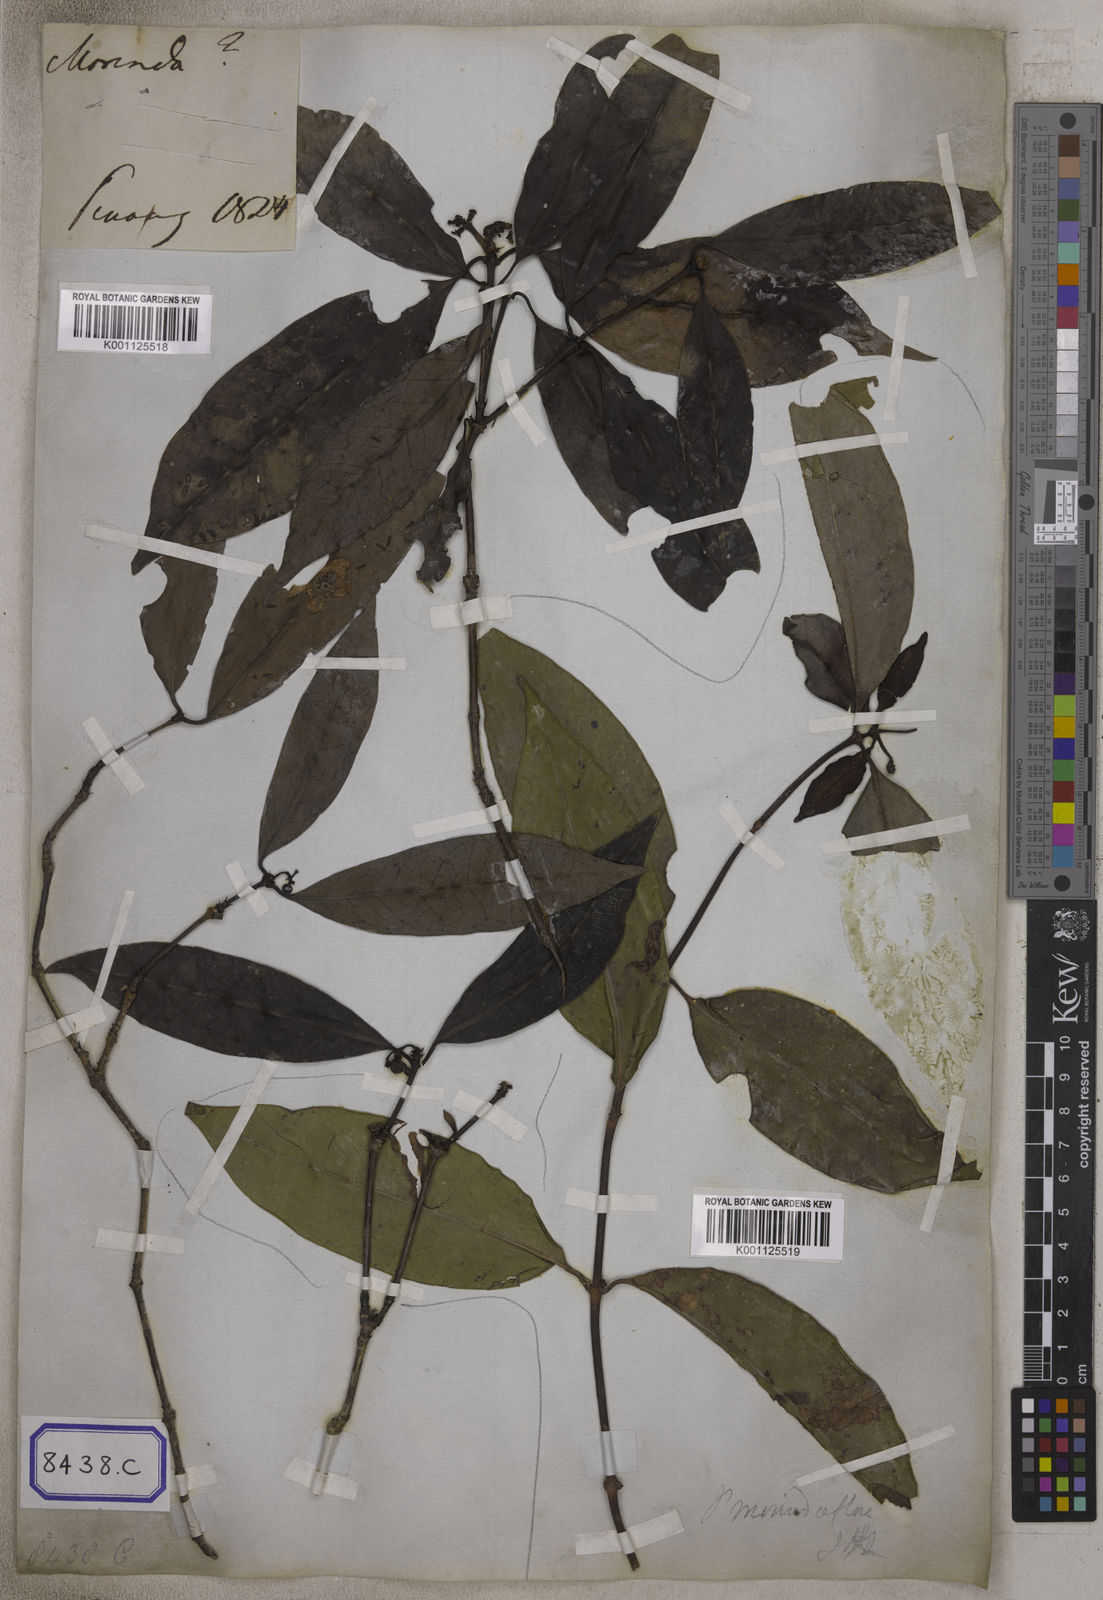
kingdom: Plantae
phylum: Tracheophyta
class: Magnoliopsida
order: Gentianales
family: Rubiaceae
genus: Psychotria
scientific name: Psychotria
